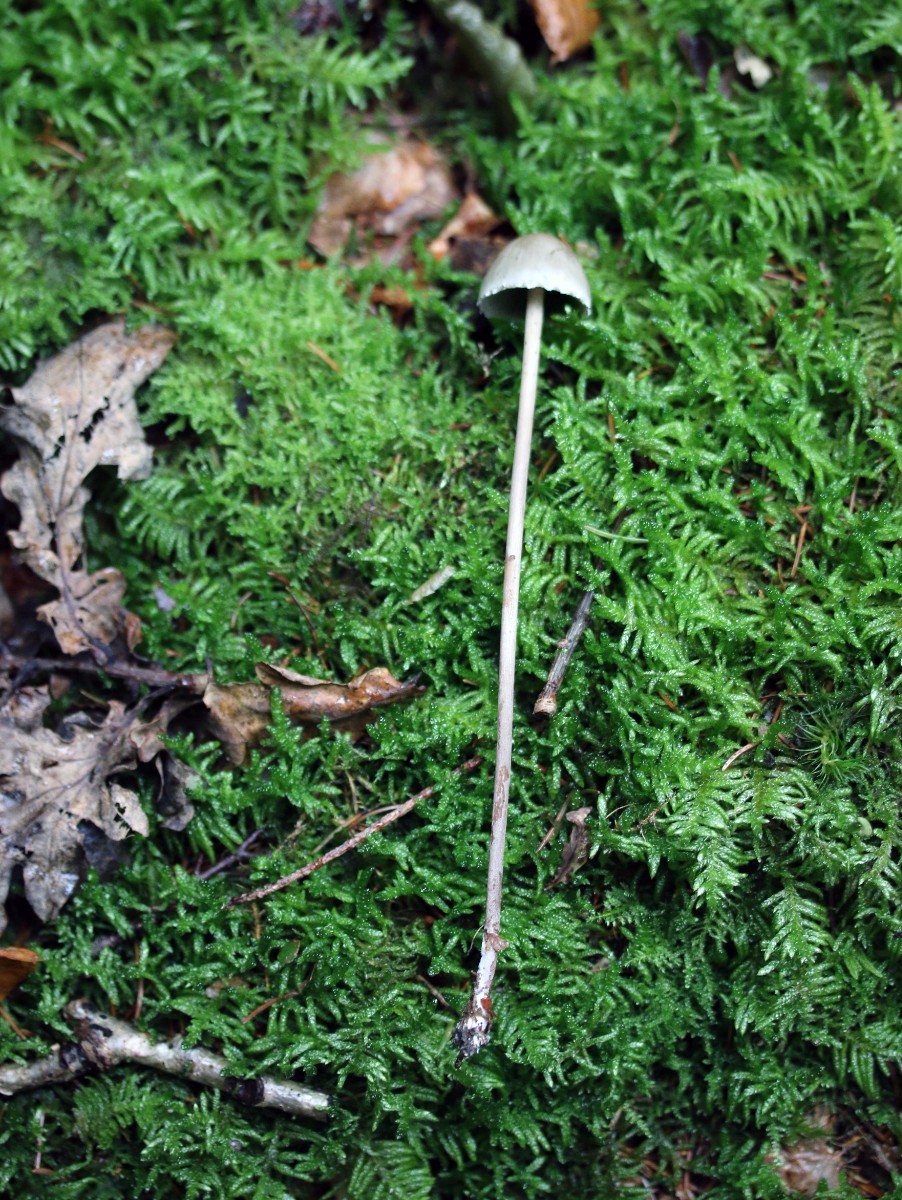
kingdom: Fungi
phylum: Basidiomycota
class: Agaricomycetes
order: Agaricales
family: Bolbitiaceae
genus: Panaeolus
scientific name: Panaeolus papilionaceus
